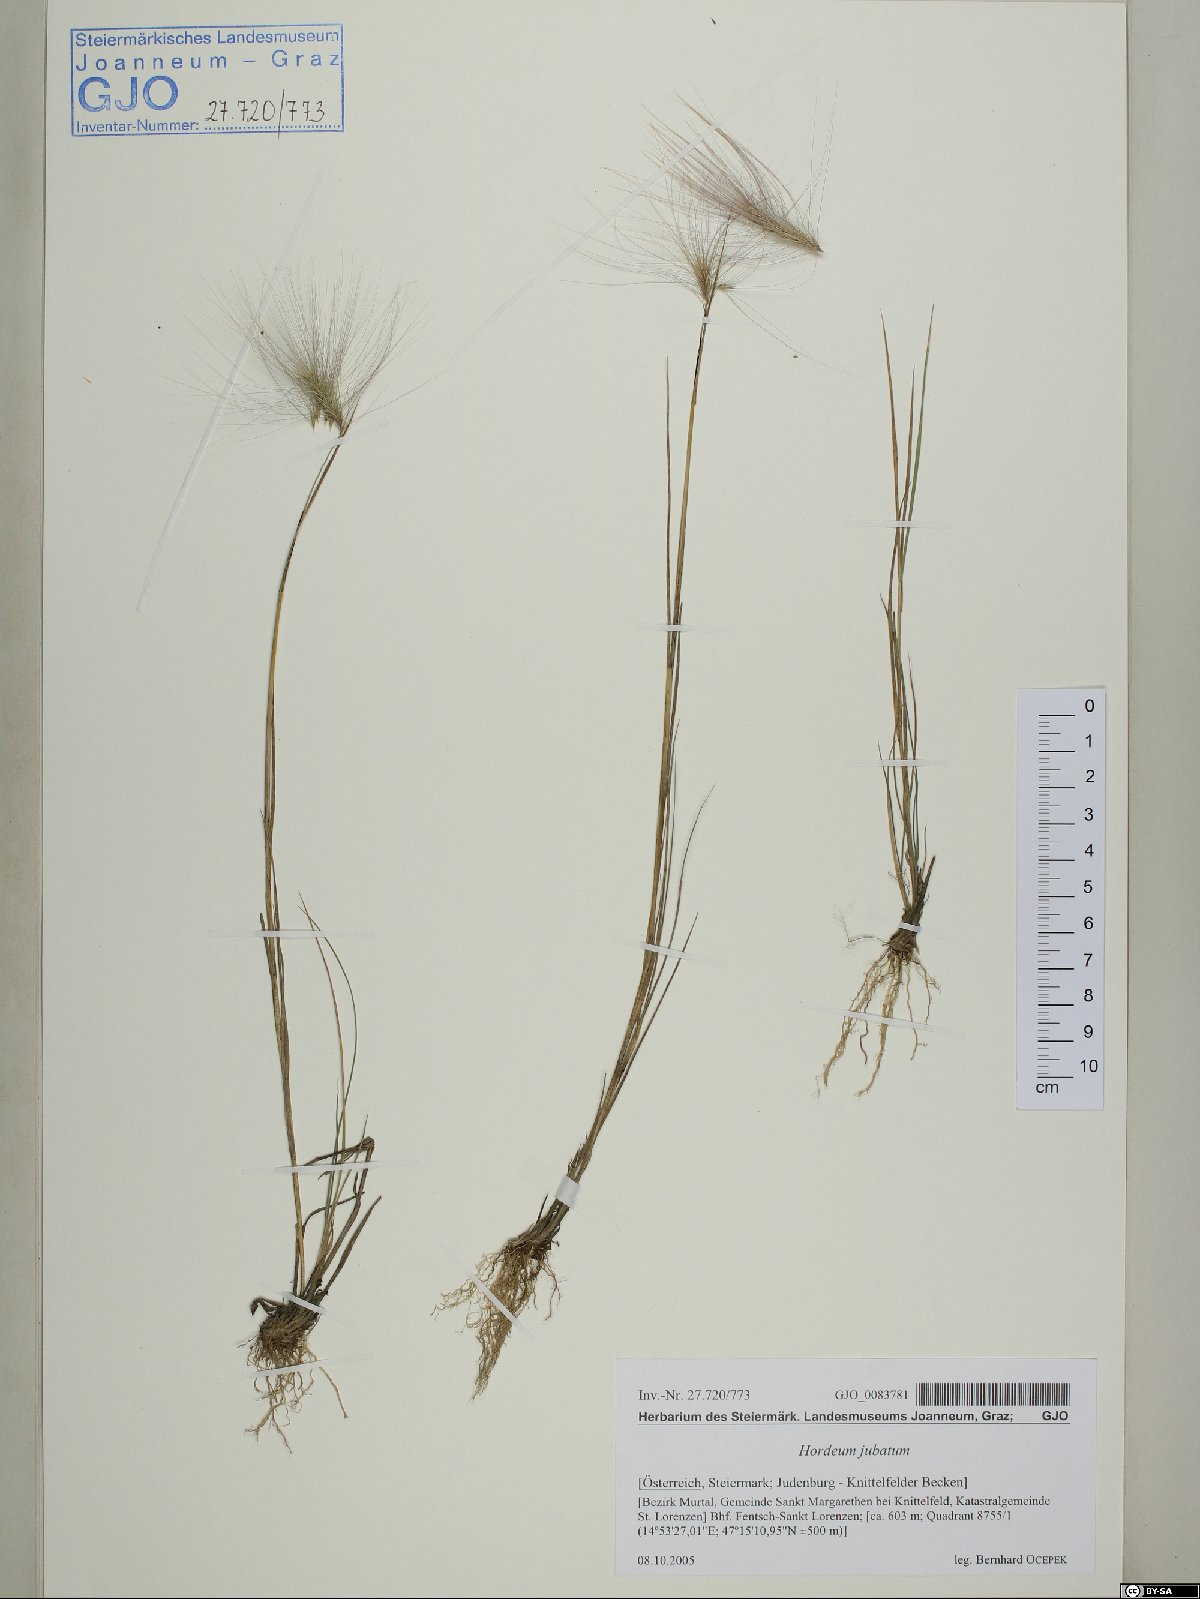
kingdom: Plantae
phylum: Tracheophyta
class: Liliopsida
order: Poales
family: Poaceae
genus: Hordeum
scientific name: Hordeum jubatum
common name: Foxtail barley
